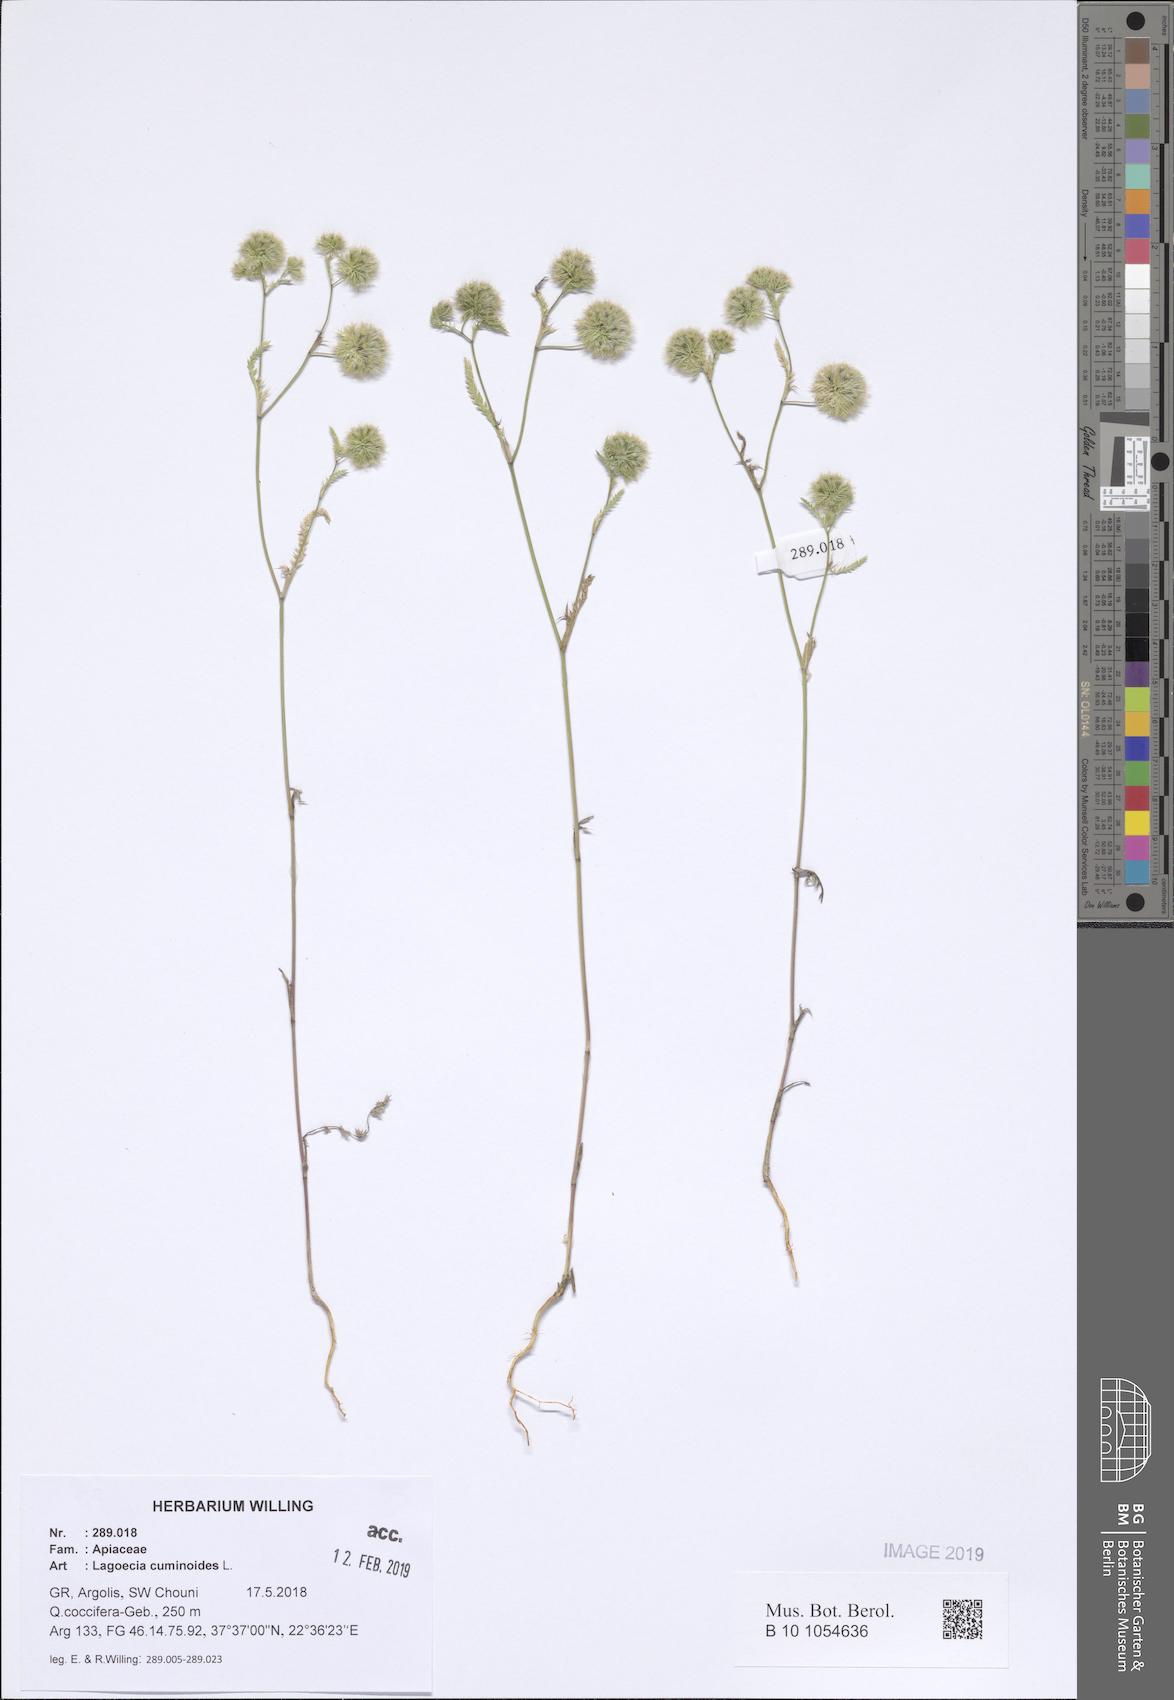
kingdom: Plantae
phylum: Tracheophyta
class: Magnoliopsida
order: Apiales
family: Apiaceae
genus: Lagoecia
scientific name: Lagoecia cuminoides
